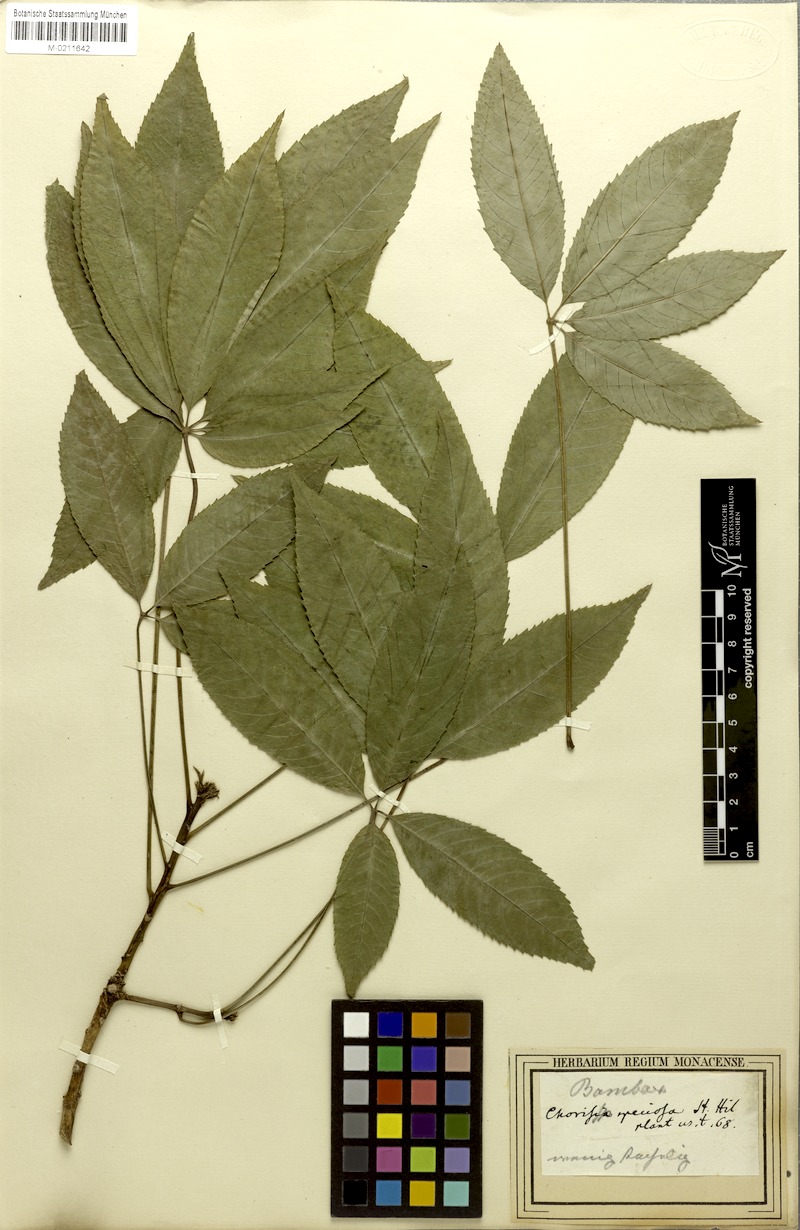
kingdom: Plantae
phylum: Tracheophyta
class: Magnoliopsida
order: Malvales
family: Malvaceae
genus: Ceiba
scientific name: Ceiba crispiflora
